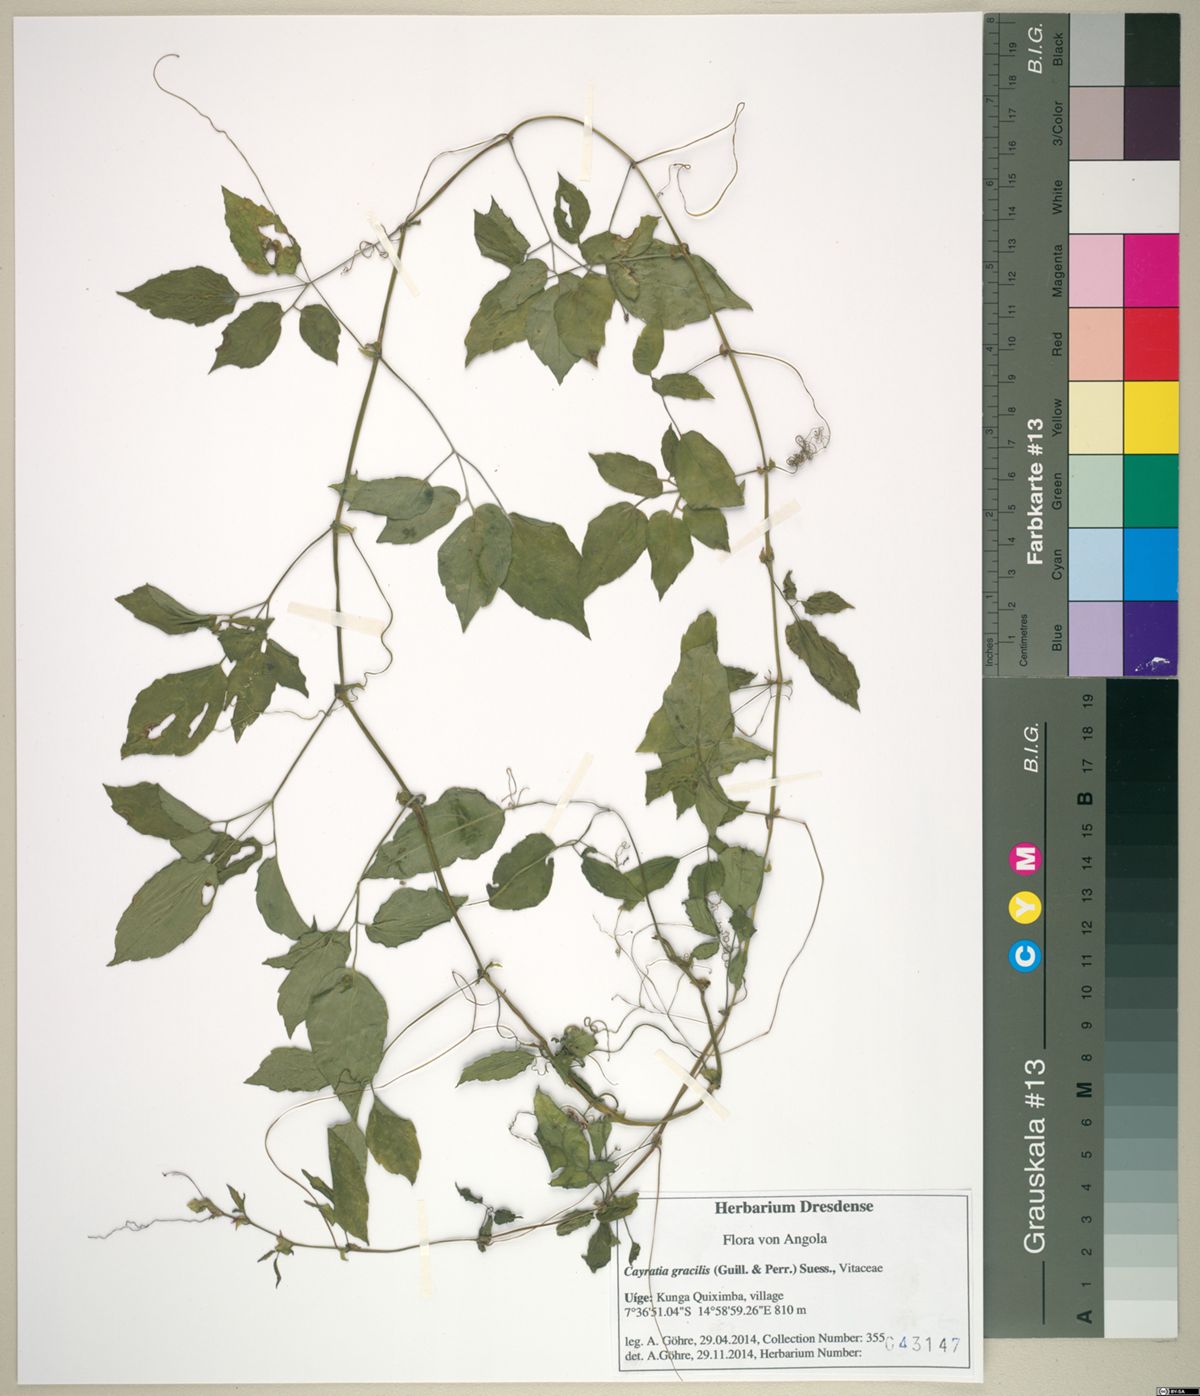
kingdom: Plantae
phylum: Tracheophyta
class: Magnoliopsida
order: Vitales
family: Vitaceae
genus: Afrocayratia
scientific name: Afrocayratia gracilis
